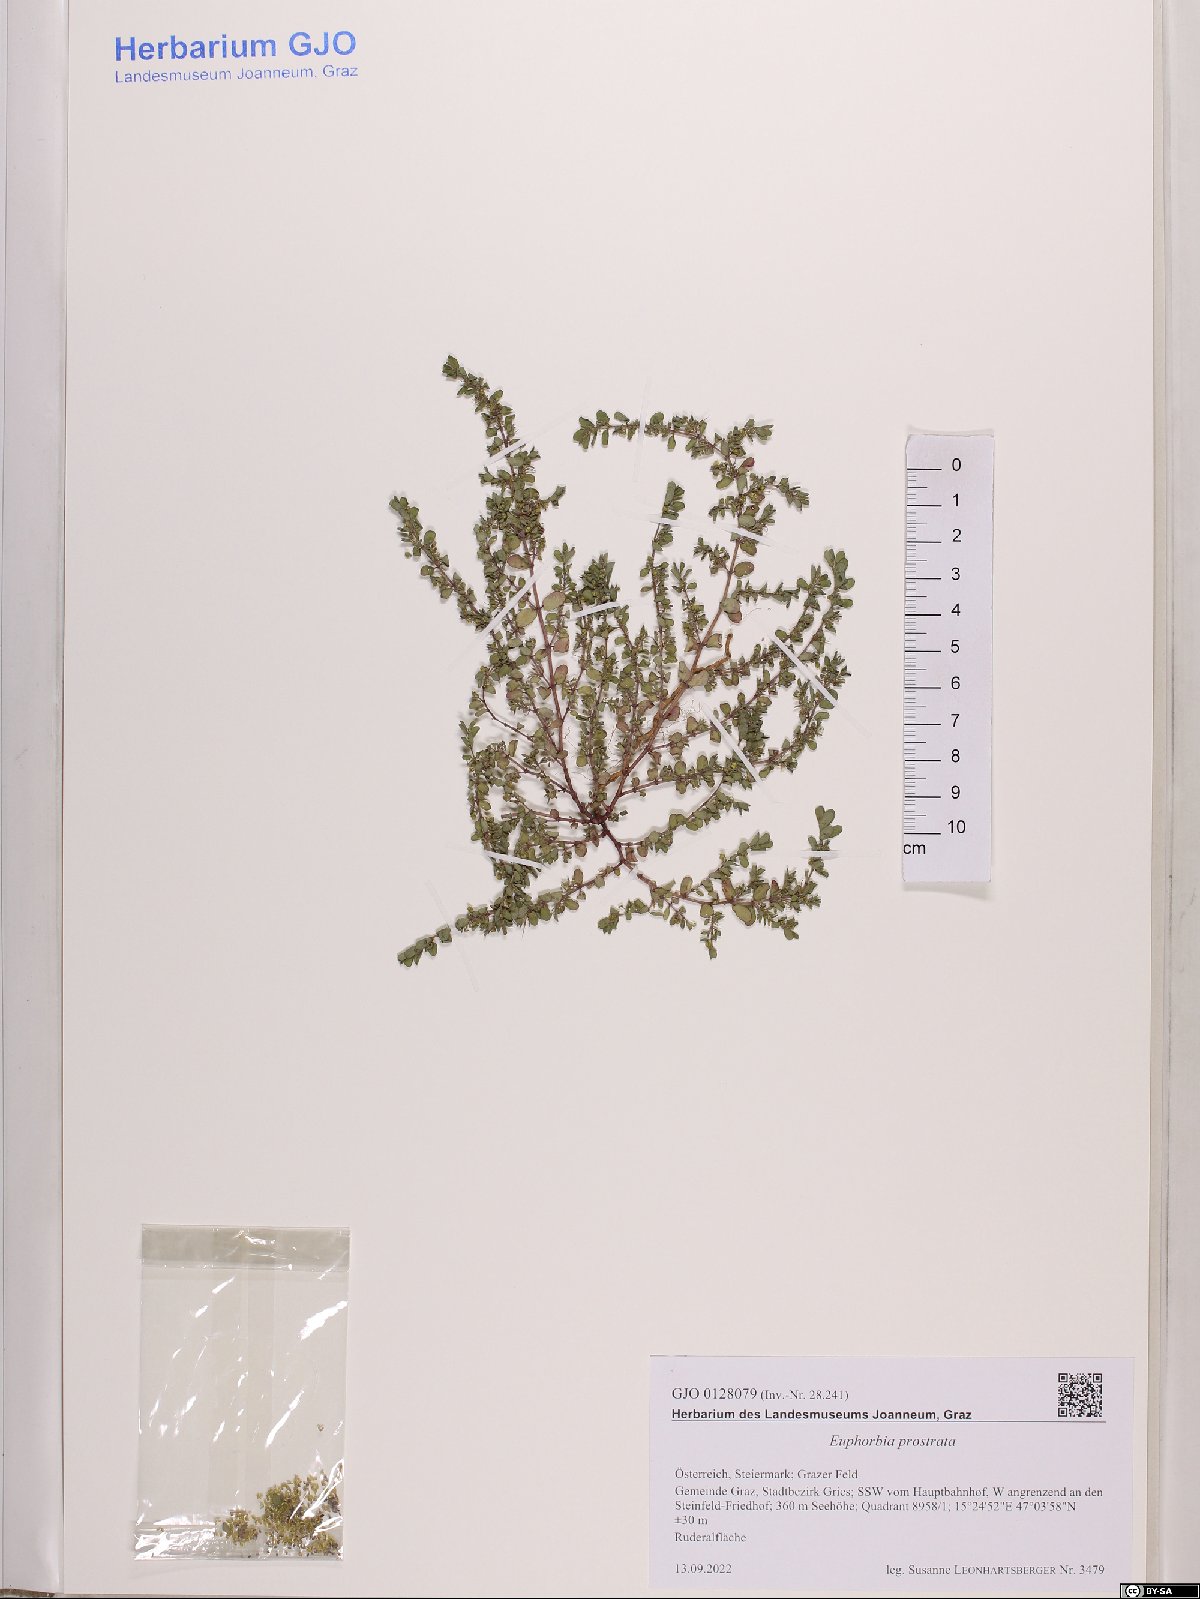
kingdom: Plantae
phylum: Tracheophyta
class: Magnoliopsida
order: Malpighiales
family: Euphorbiaceae
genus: Euphorbia
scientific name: Euphorbia prostrata
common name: Prostrate sandmat
